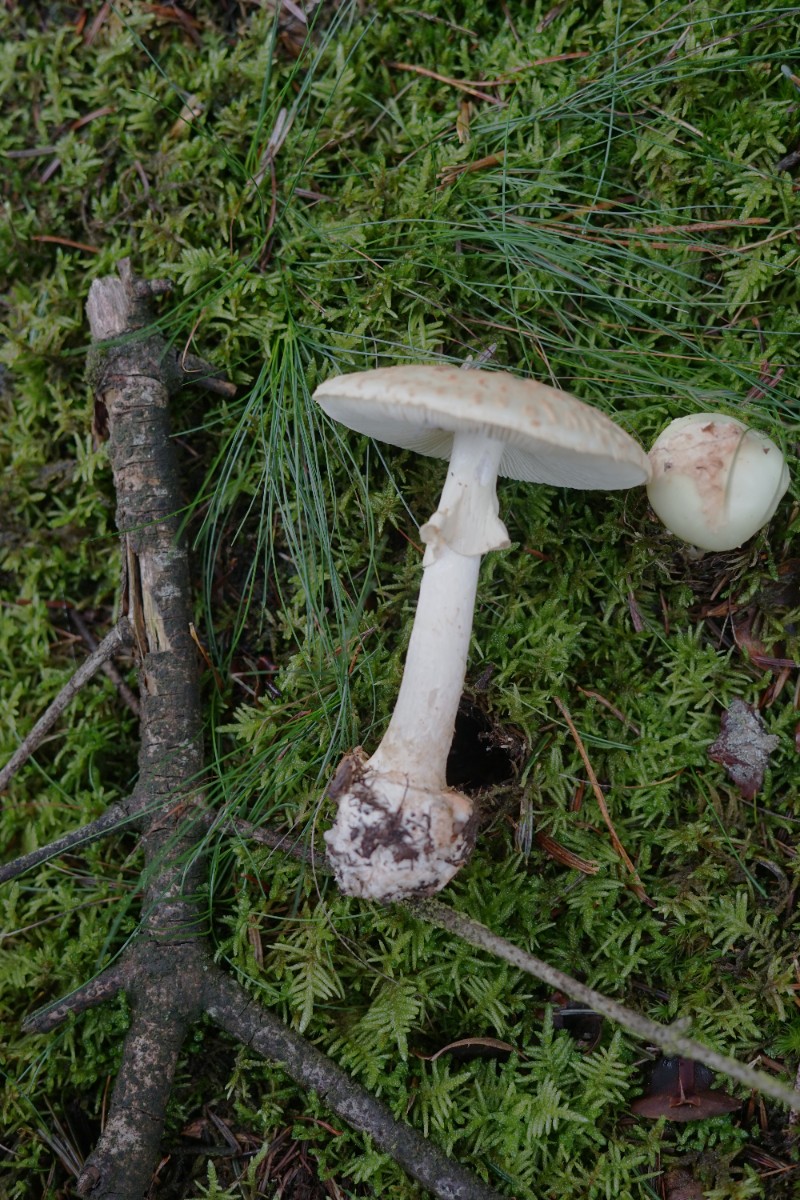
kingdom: Fungi
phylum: Basidiomycota
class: Agaricomycetes
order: Agaricales
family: Amanitaceae
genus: Amanita
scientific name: Amanita citrina
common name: kugleknoldet fluesvamp
